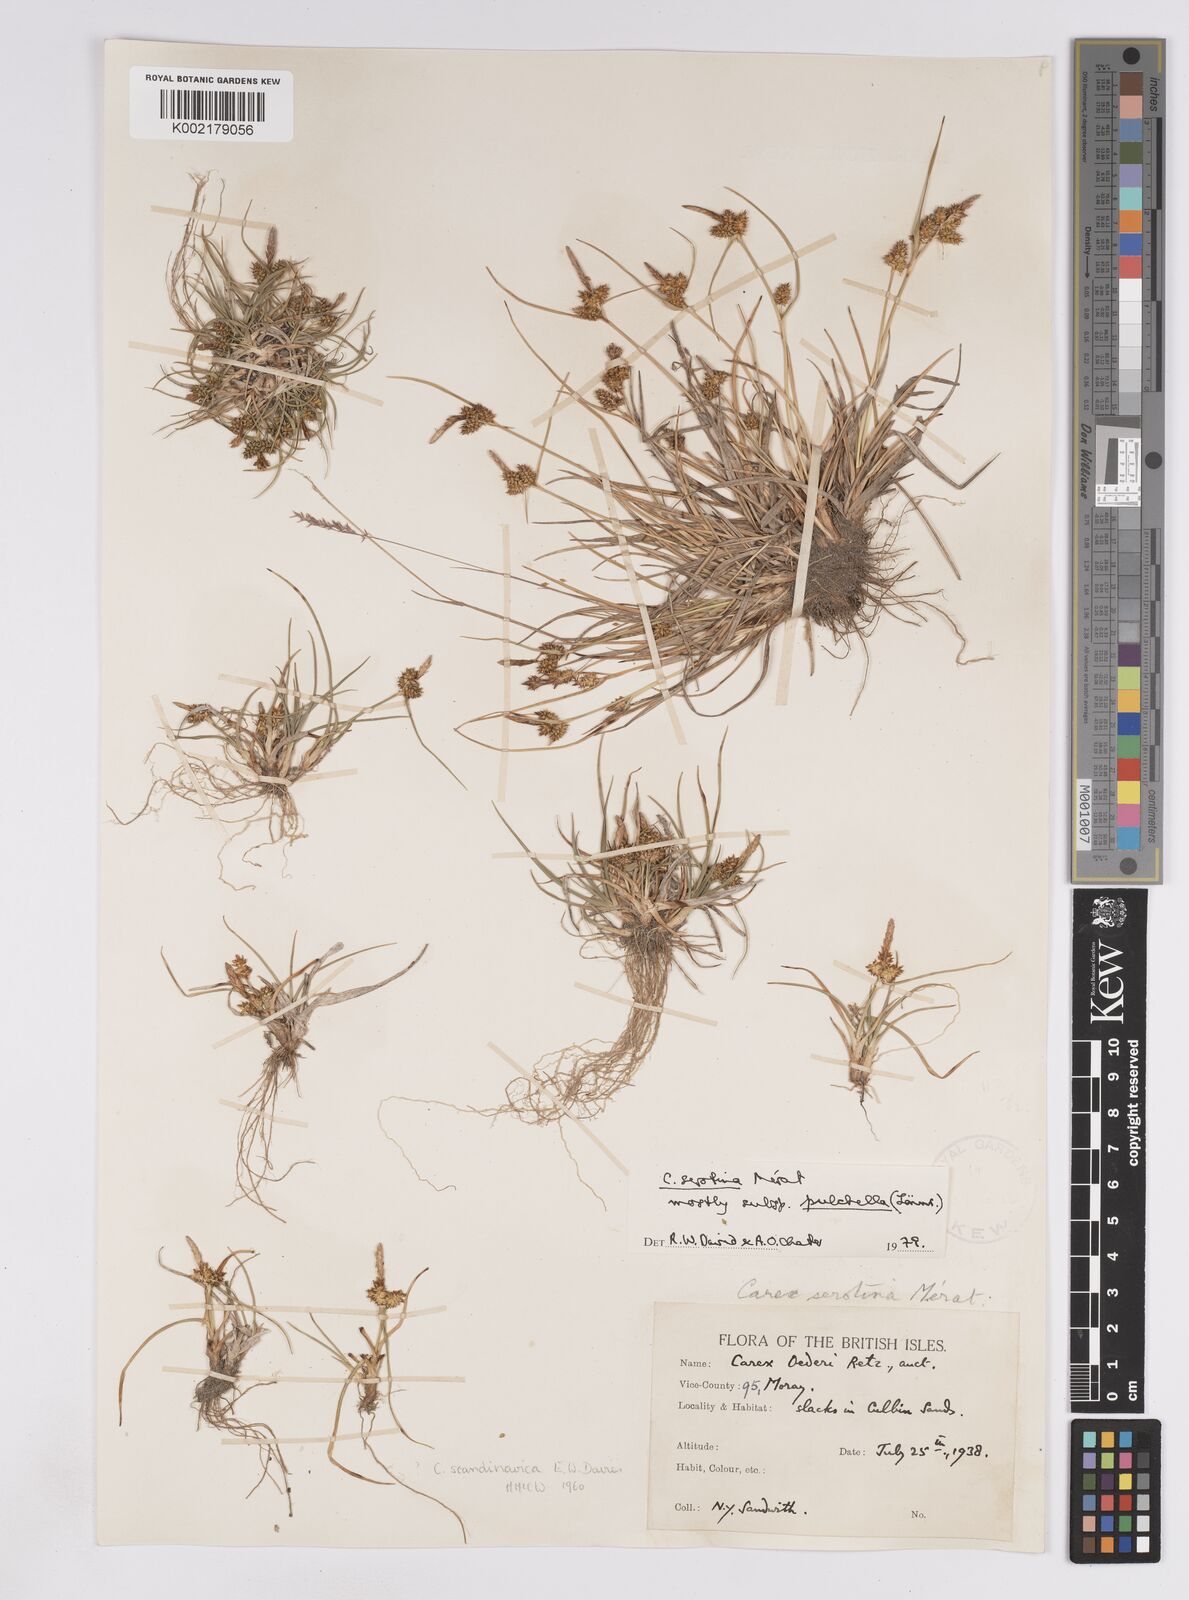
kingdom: Plantae
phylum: Tracheophyta
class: Liliopsida
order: Poales
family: Cyperaceae
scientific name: Cyperaceae
